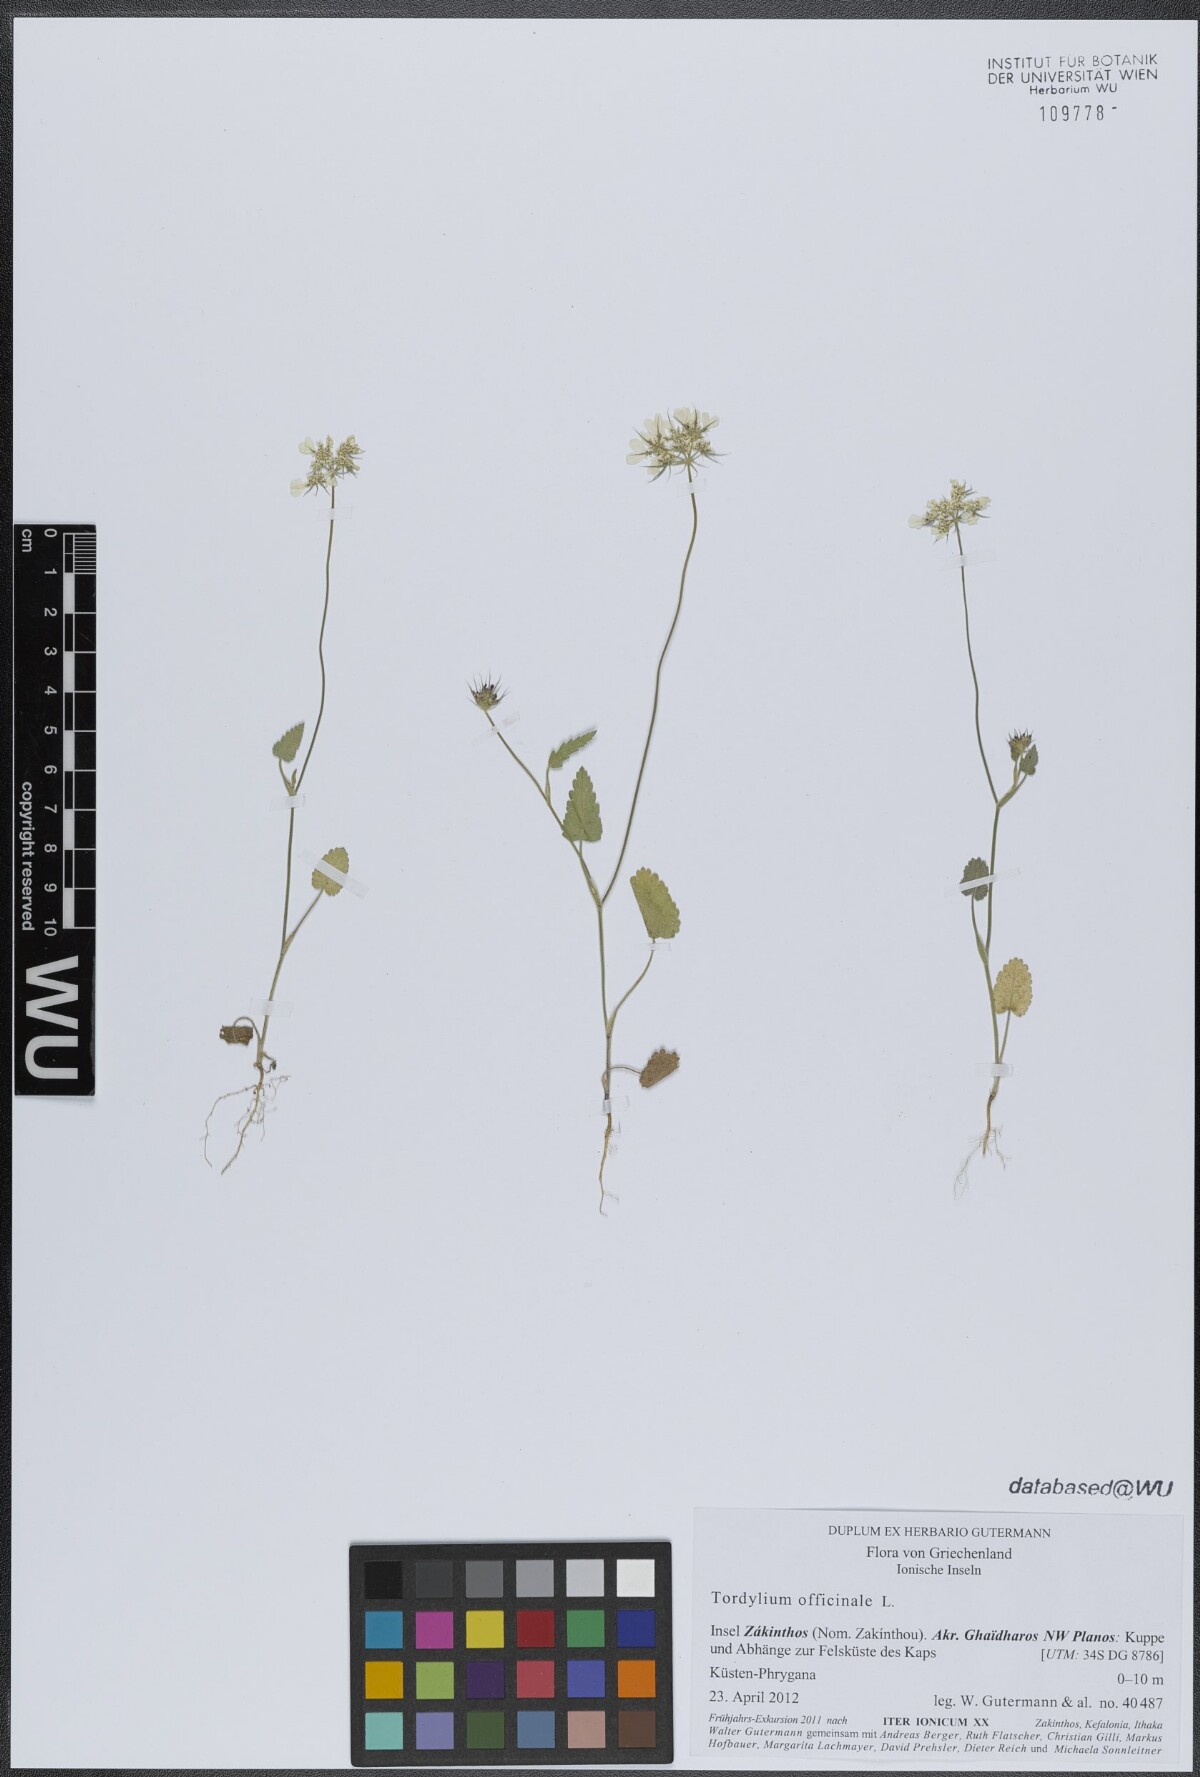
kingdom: Plantae
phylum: Tracheophyta
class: Magnoliopsida
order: Apiales
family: Apiaceae
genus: Tordylium
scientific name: Tordylium officinale
